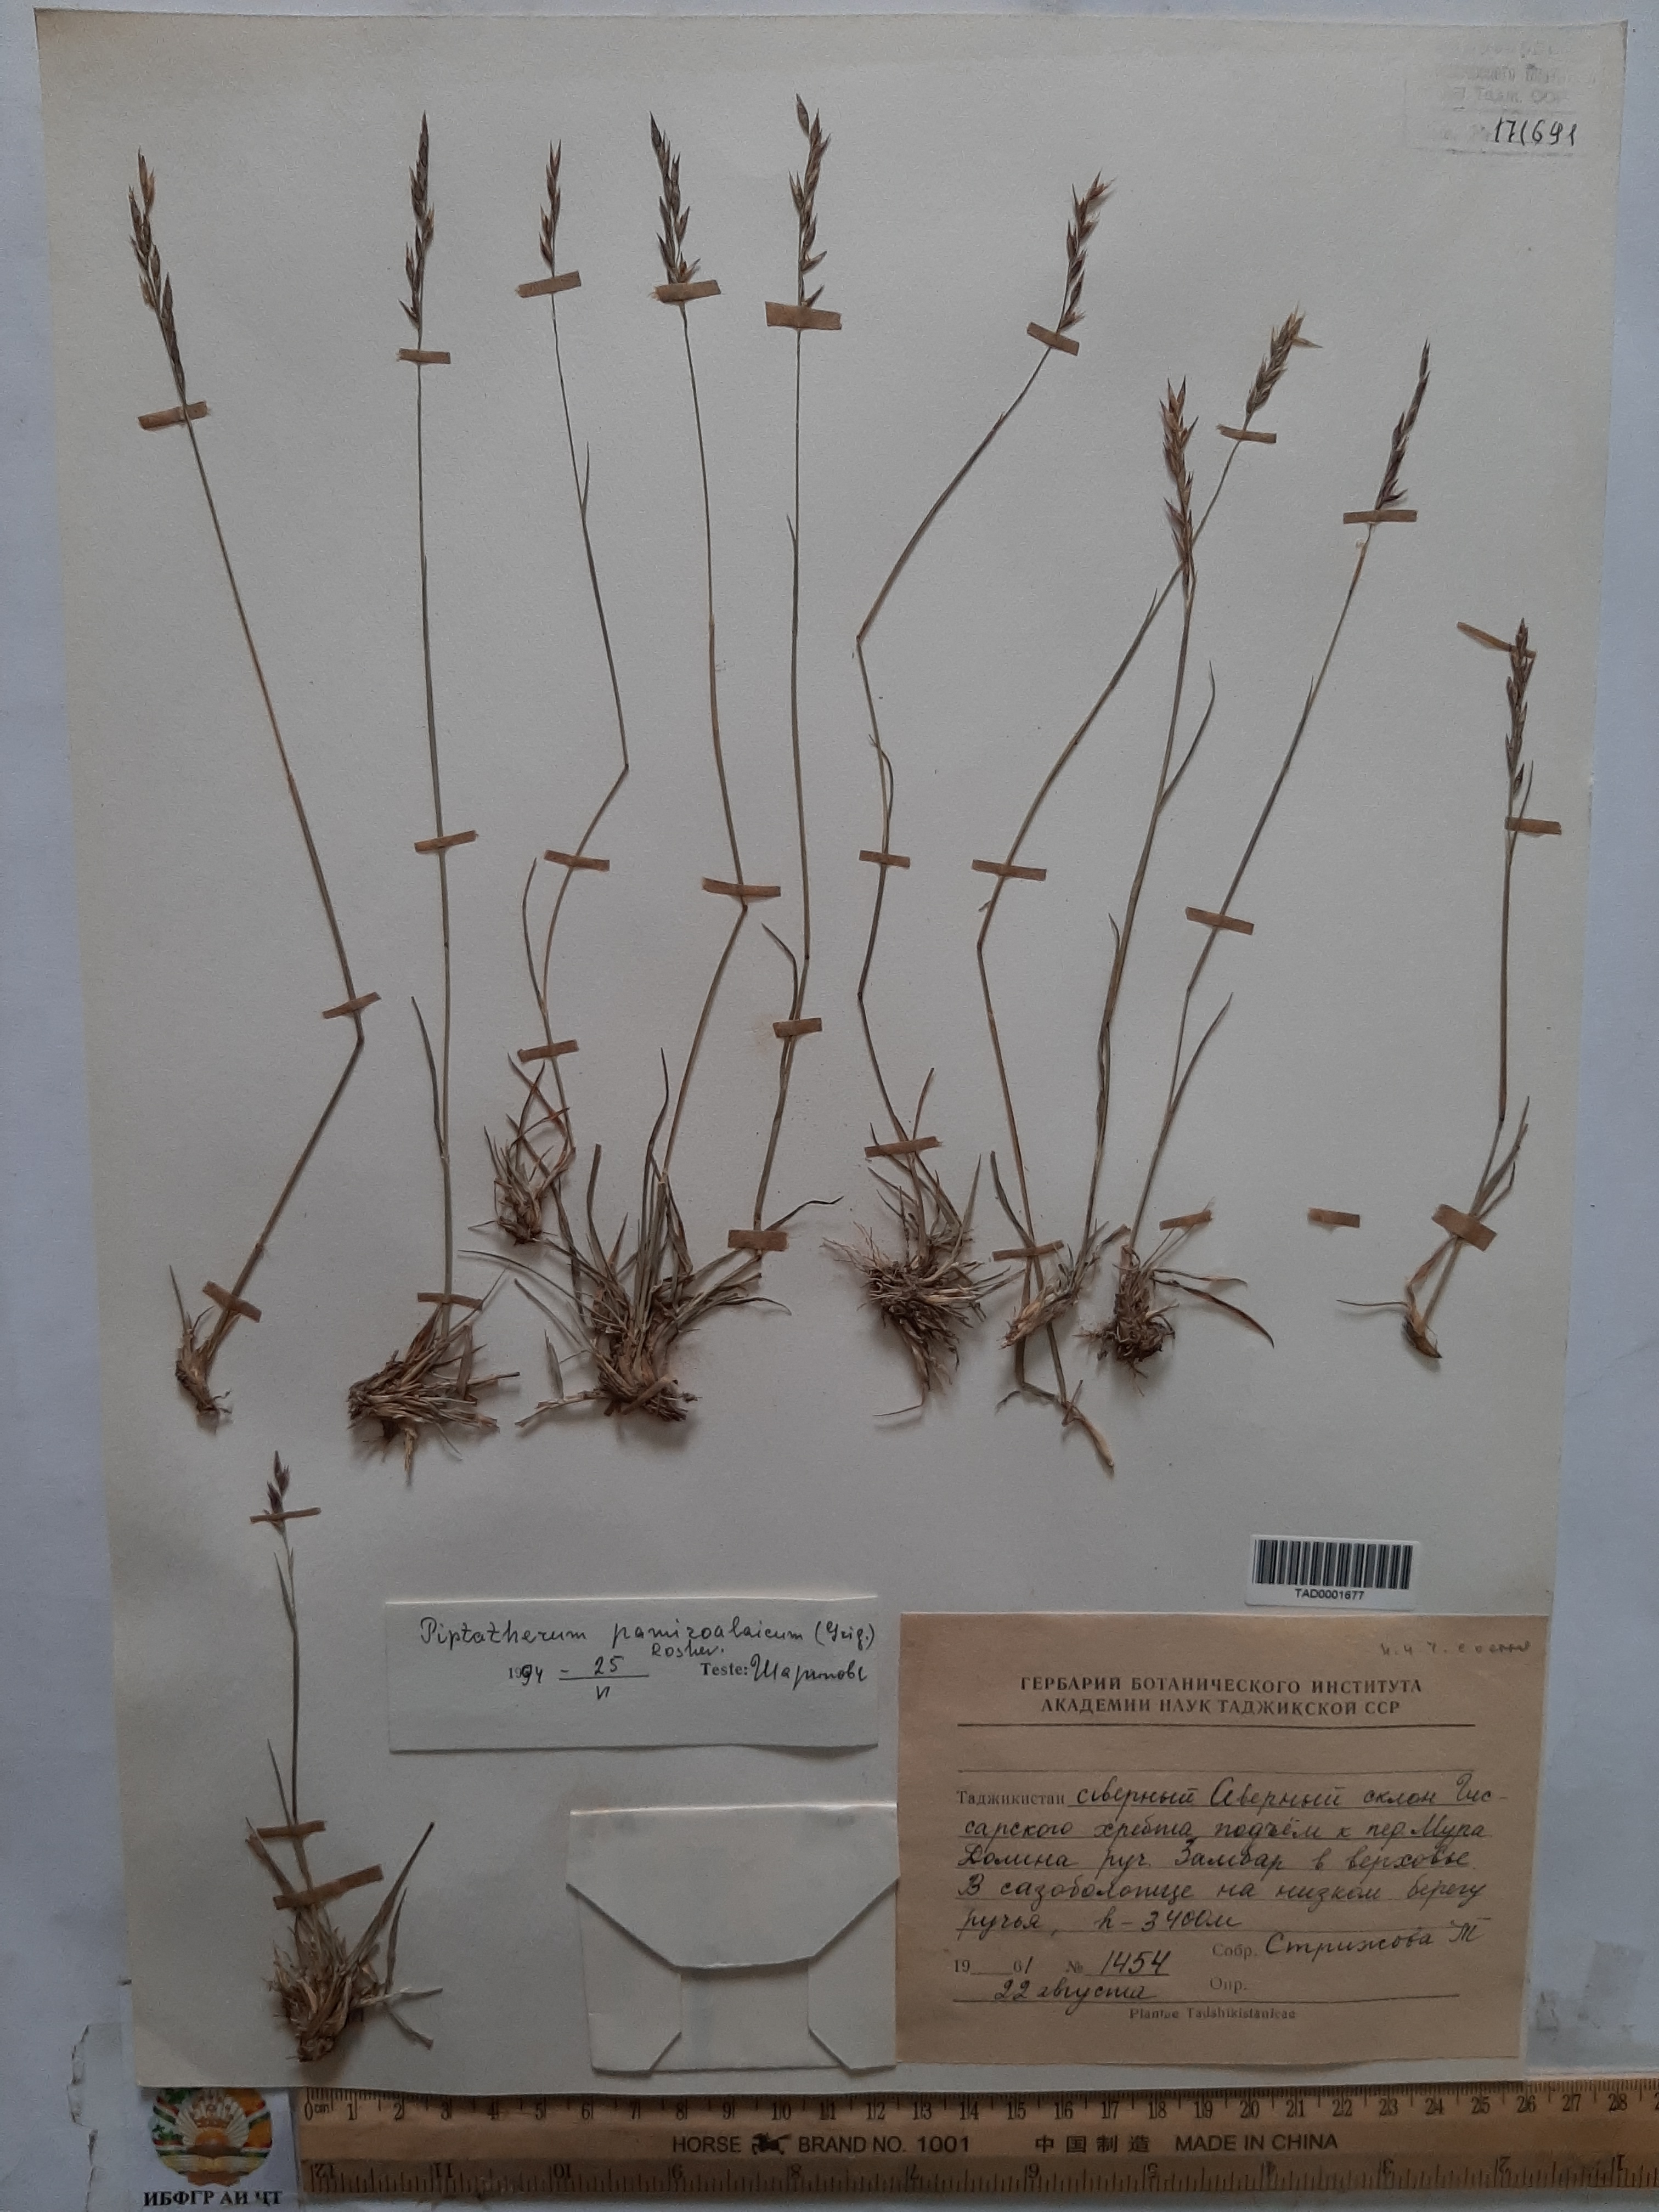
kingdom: Plantae
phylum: Tracheophyta
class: Liliopsida
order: Poales
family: Poaceae
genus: Piptatherum
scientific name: Piptatherum pamiralaicum
